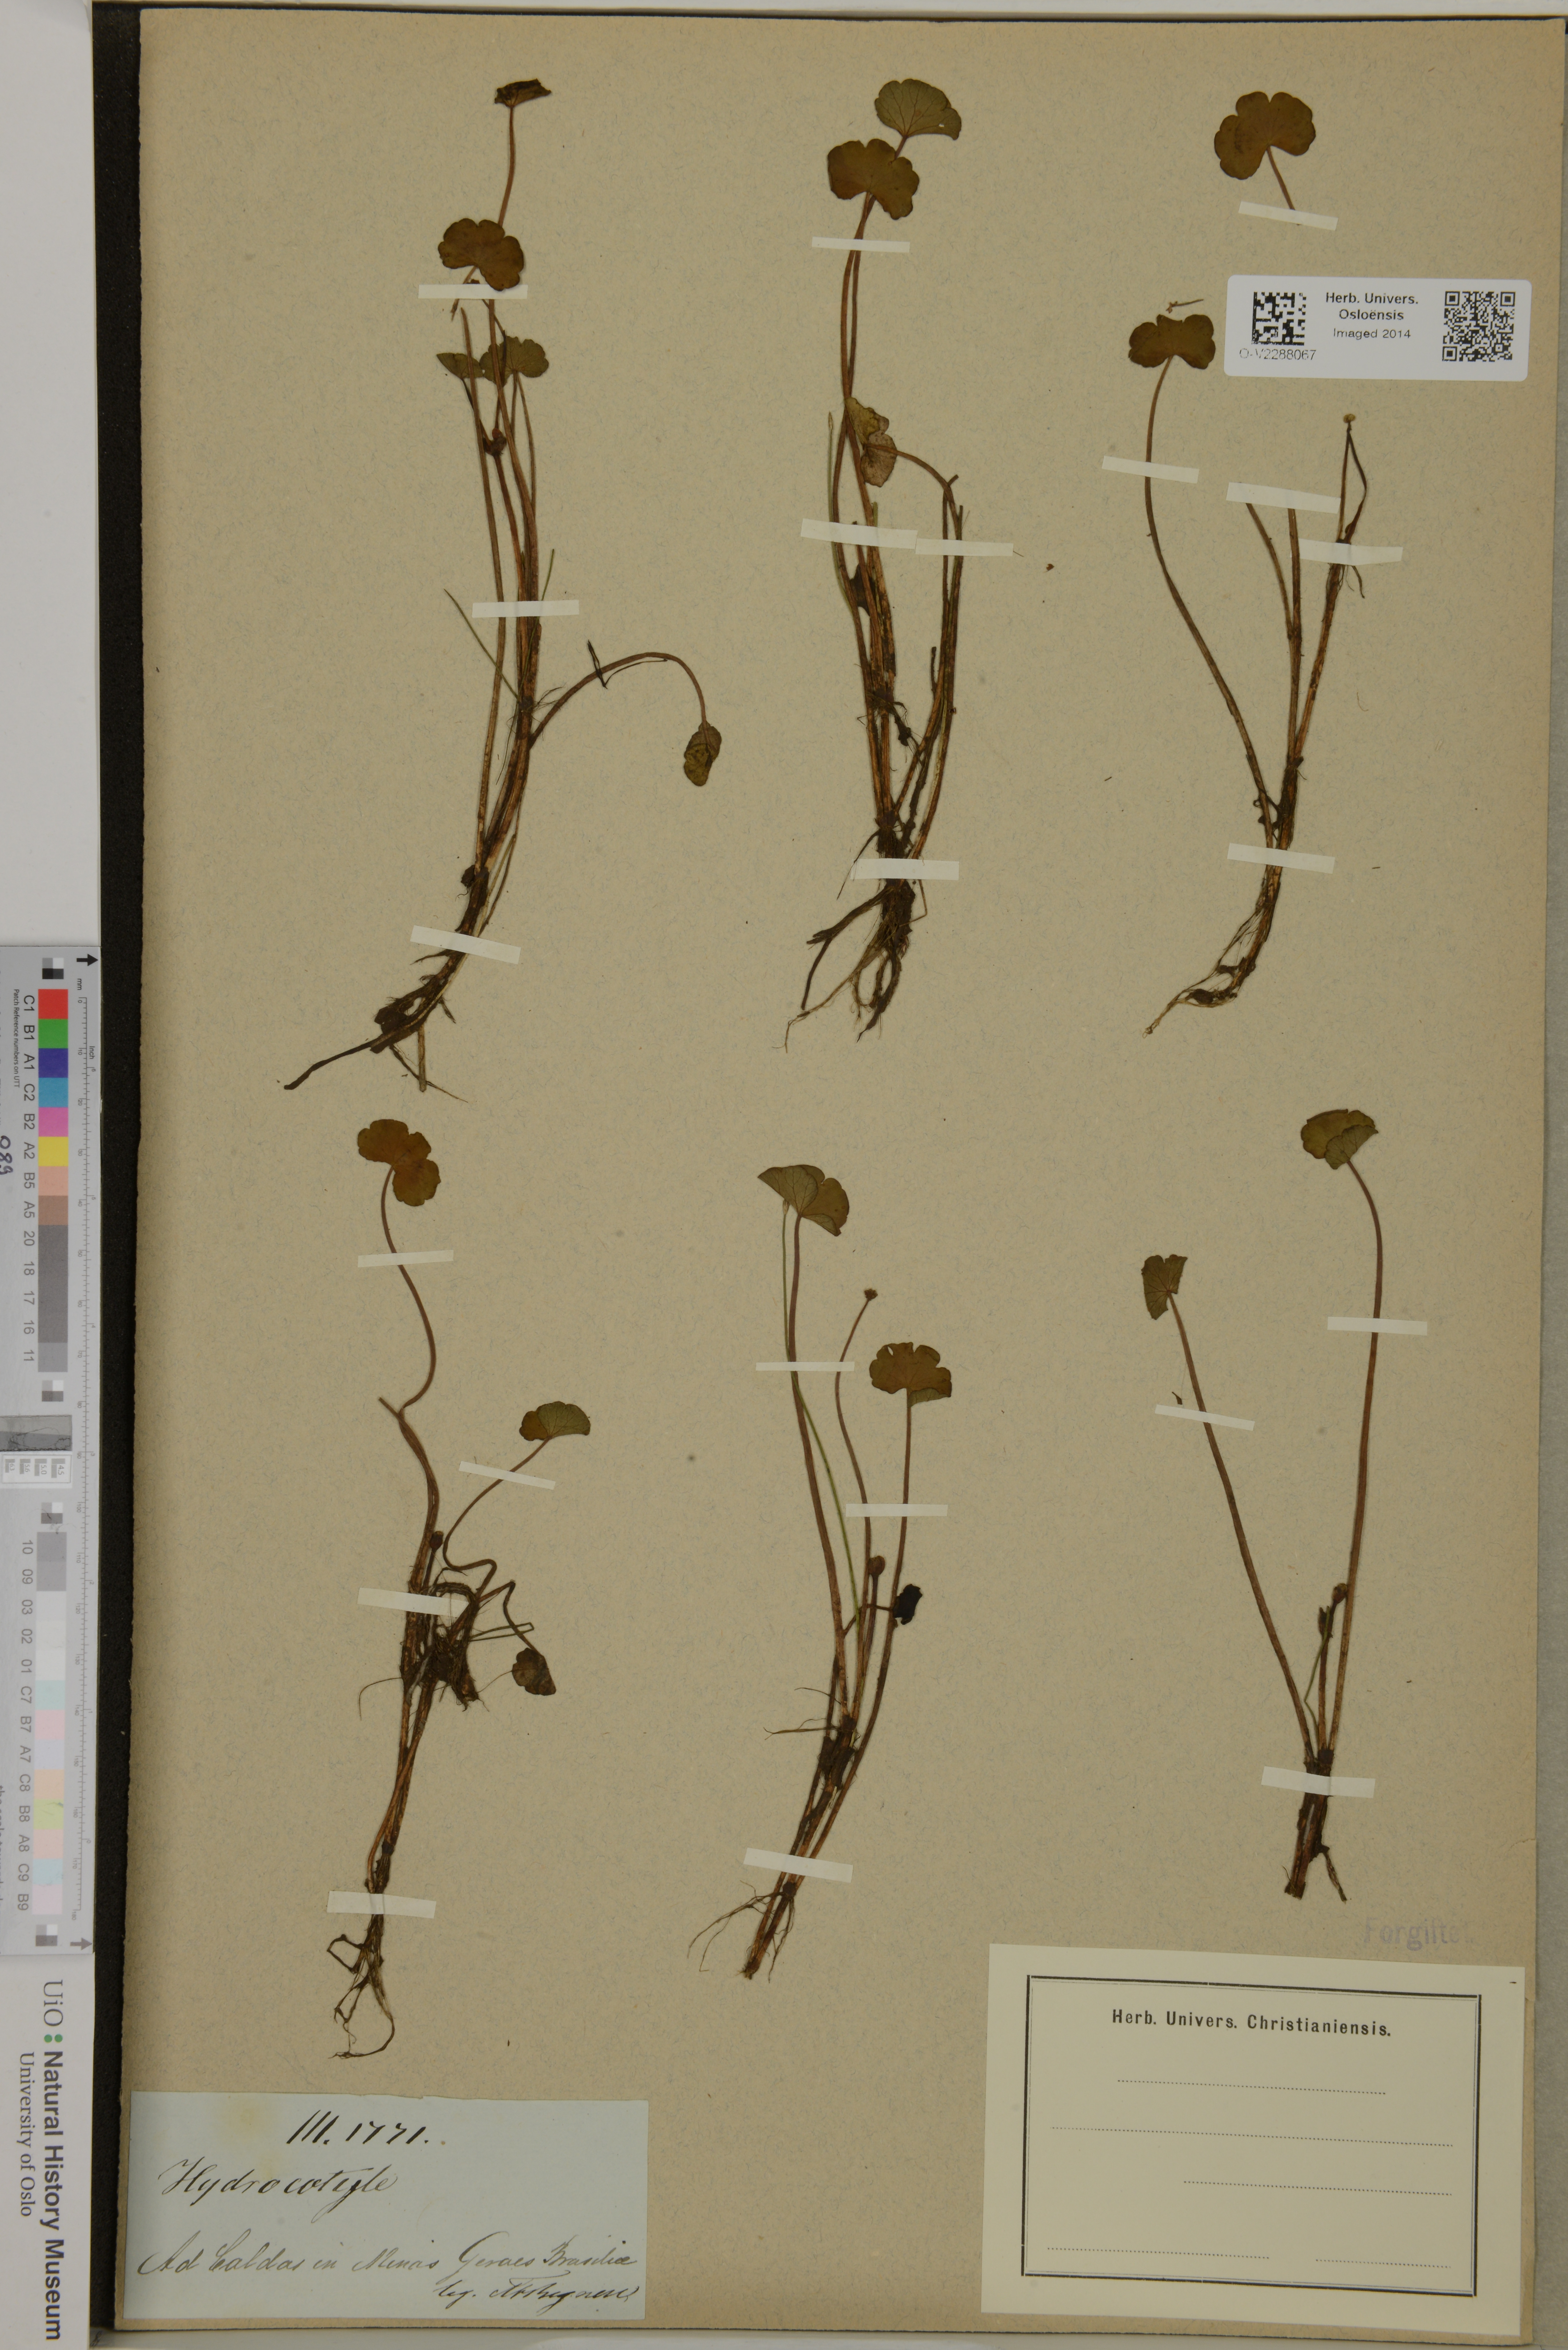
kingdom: Plantae
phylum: Tracheophyta
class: Magnoliopsida
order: Apiales
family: Araliaceae
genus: Hydrocotyle
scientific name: Hydrocotyle
